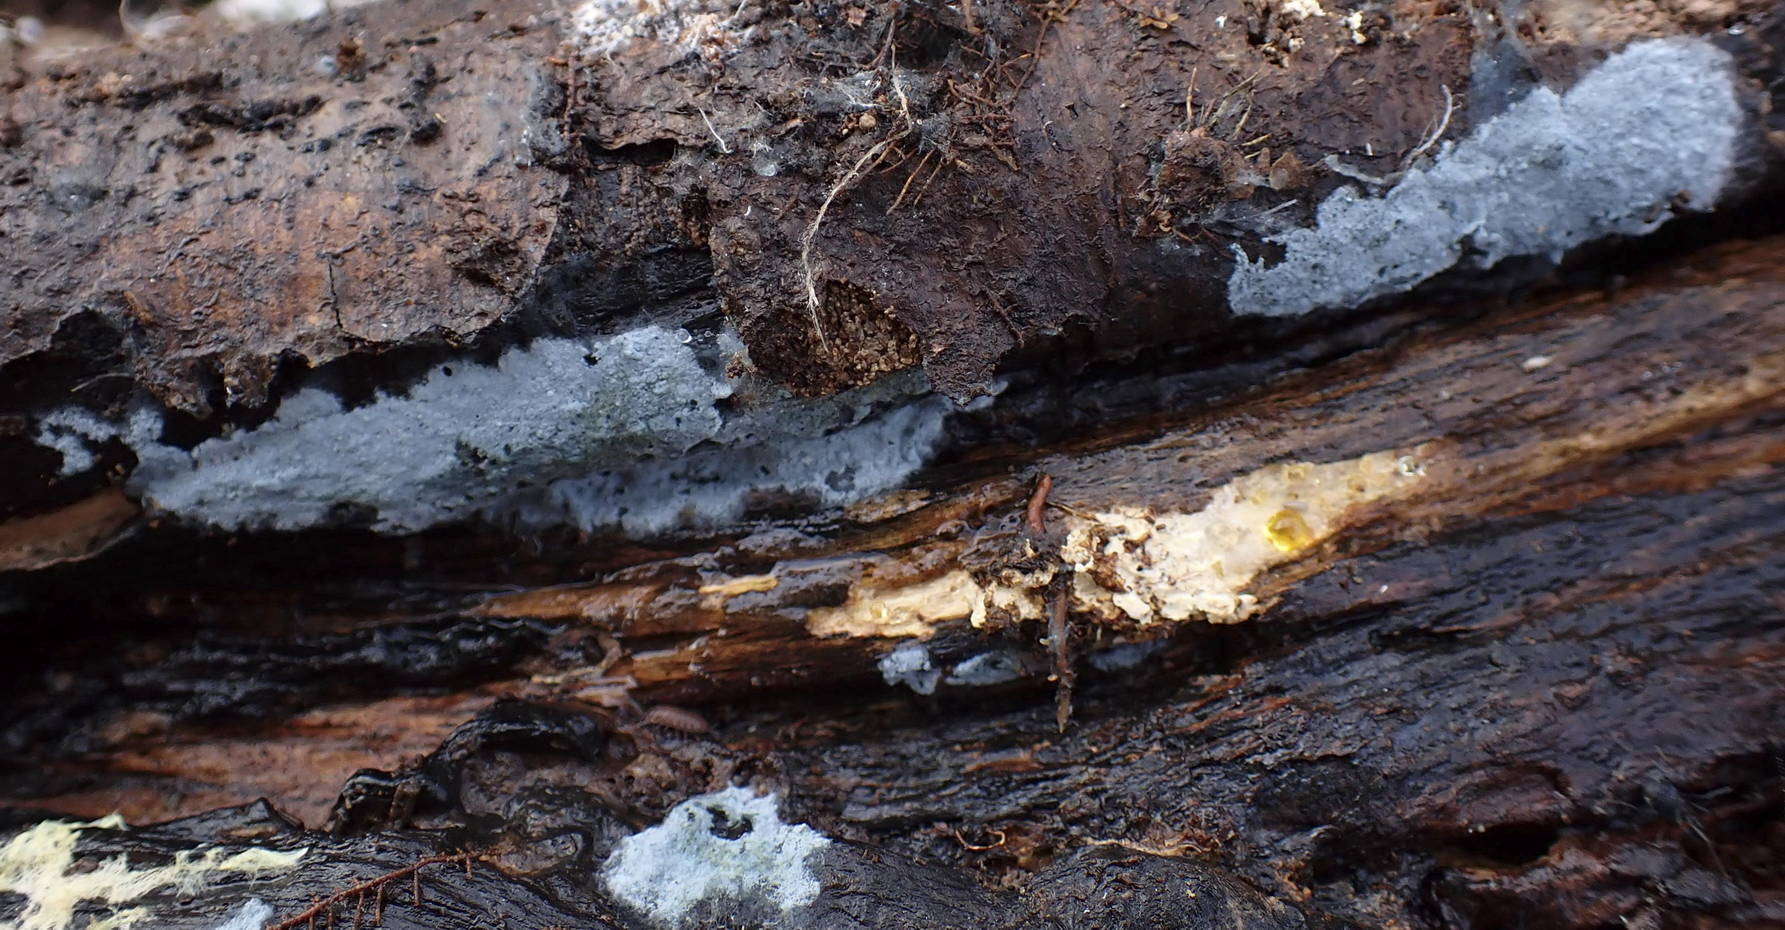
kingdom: Fungi
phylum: Basidiomycota
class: Agaricomycetes
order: Atheliales
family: Atheliaceae
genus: Byssocorticium
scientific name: Byssocorticium atrovirens
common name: blå førnehinde
